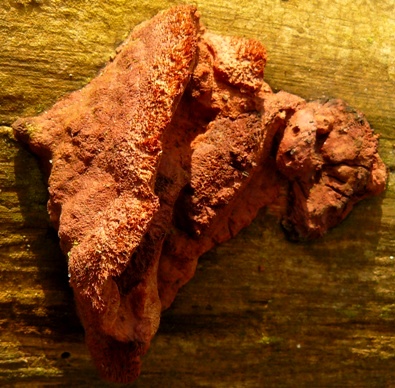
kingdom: Fungi
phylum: Basidiomycota
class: Agaricomycetes
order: Polyporales
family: Phanerochaetaceae
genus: Hapalopilus
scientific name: Hapalopilus rutilans
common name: rødlig okkerporesvamp
